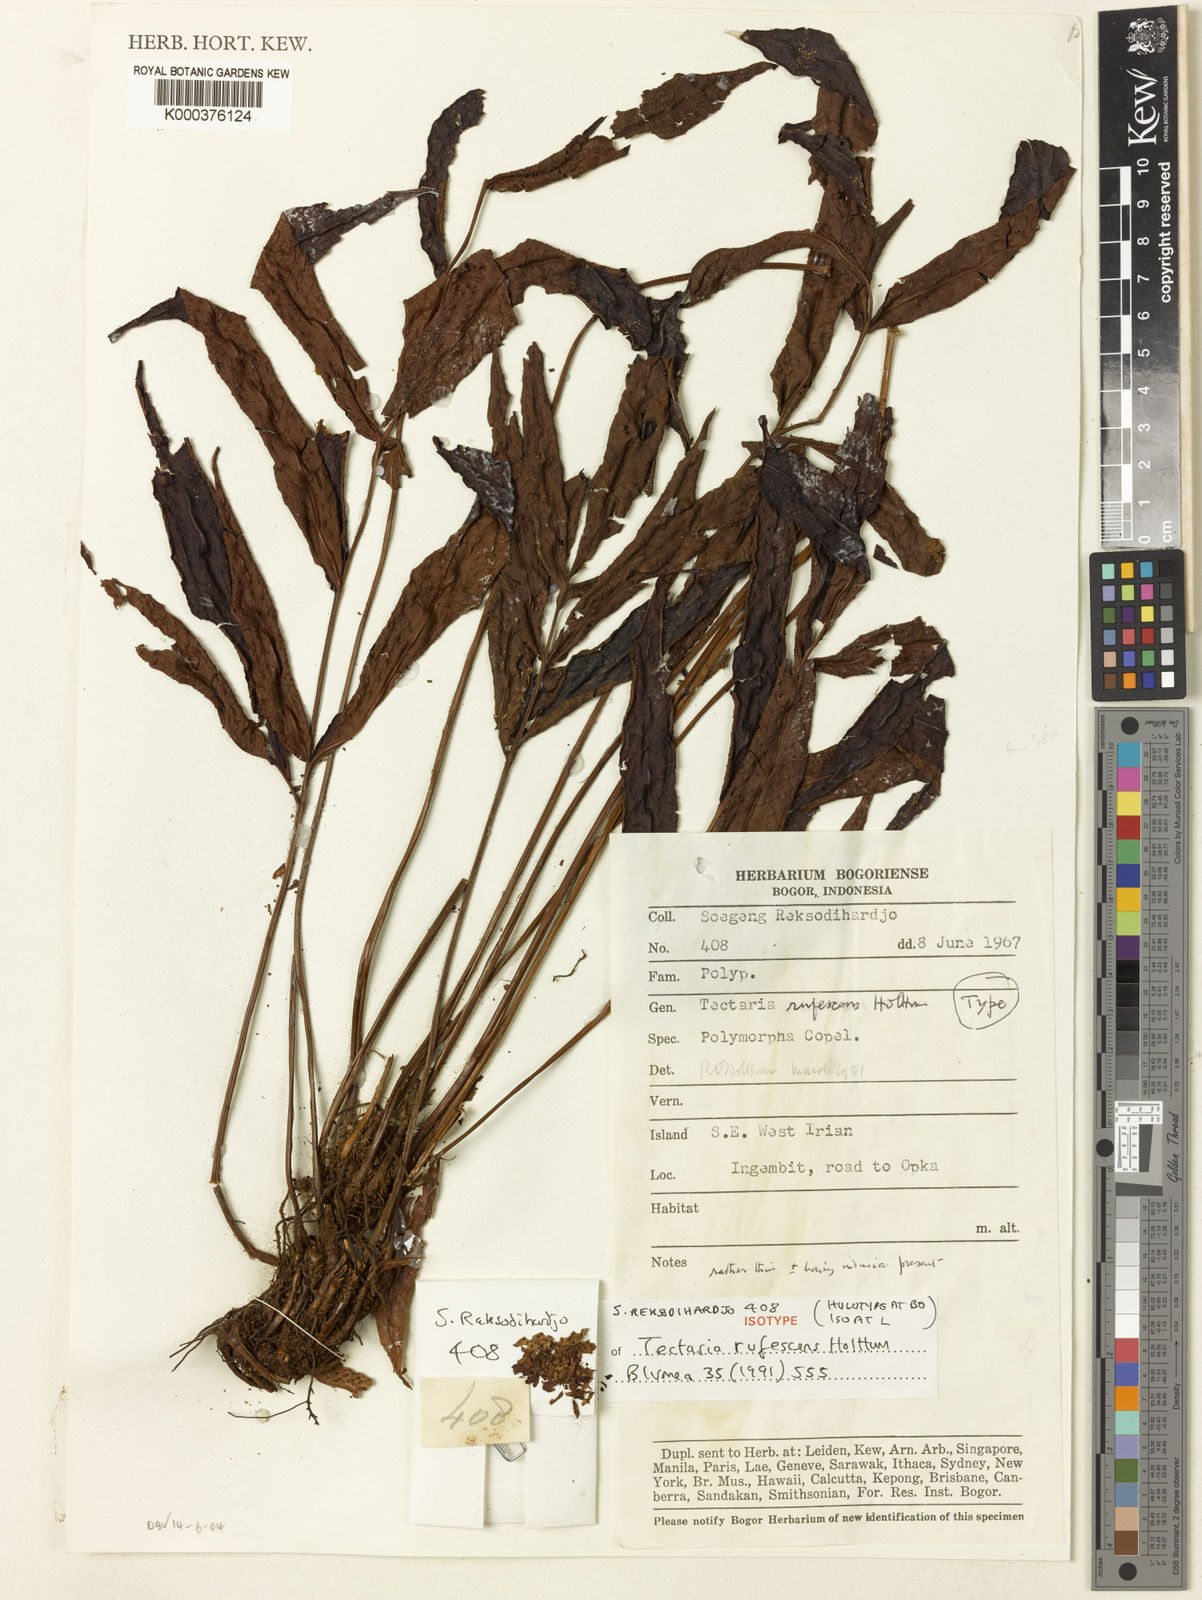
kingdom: Plantae
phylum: Tracheophyta
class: Polypodiopsida
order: Polypodiales
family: Tectariaceae
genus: Tectaria
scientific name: Tectaria rufescens
